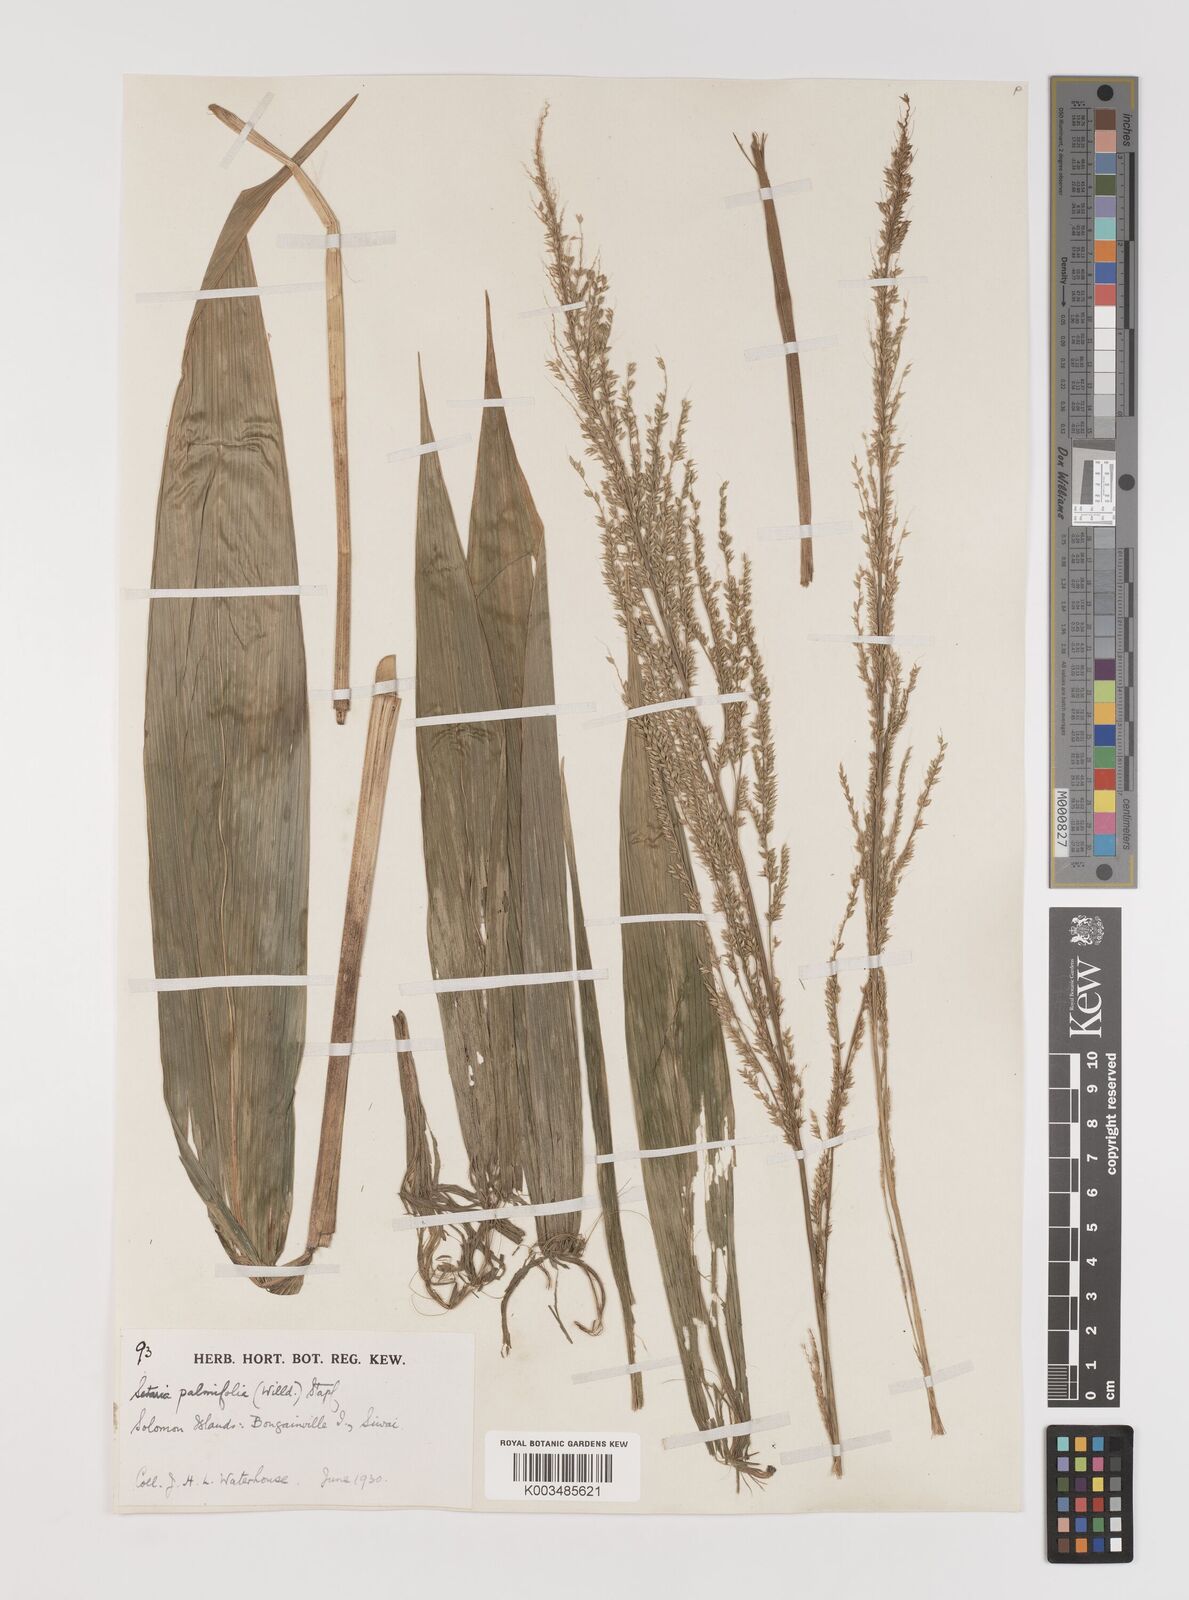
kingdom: Plantae
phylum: Tracheophyta
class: Liliopsida
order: Poales
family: Poaceae
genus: Setaria
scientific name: Setaria palmifolia
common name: Broadleaved bristlegrass
